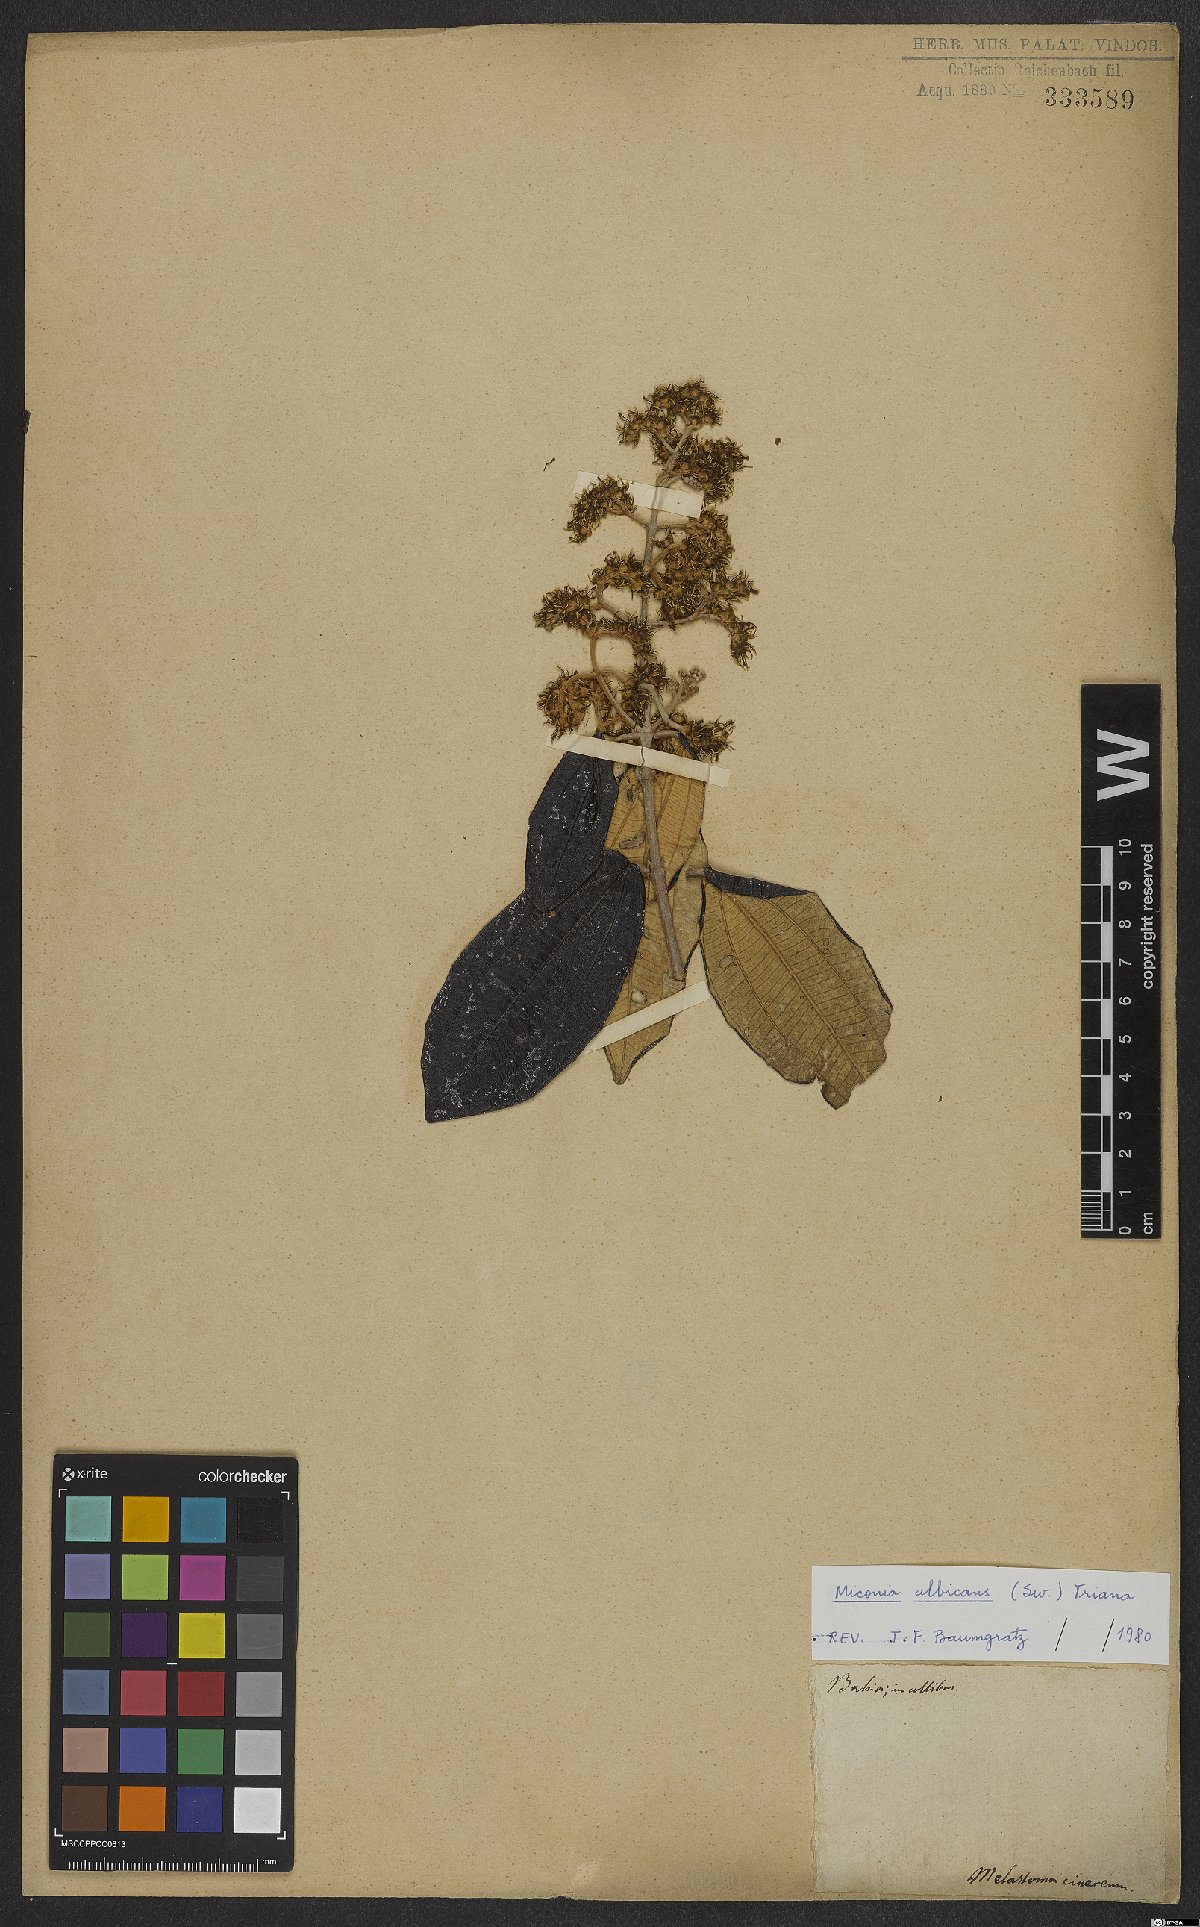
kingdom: Plantae
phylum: Tracheophyta
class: Magnoliopsida
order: Myrtales
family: Melastomataceae
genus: Miconia
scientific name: Miconia albicans
